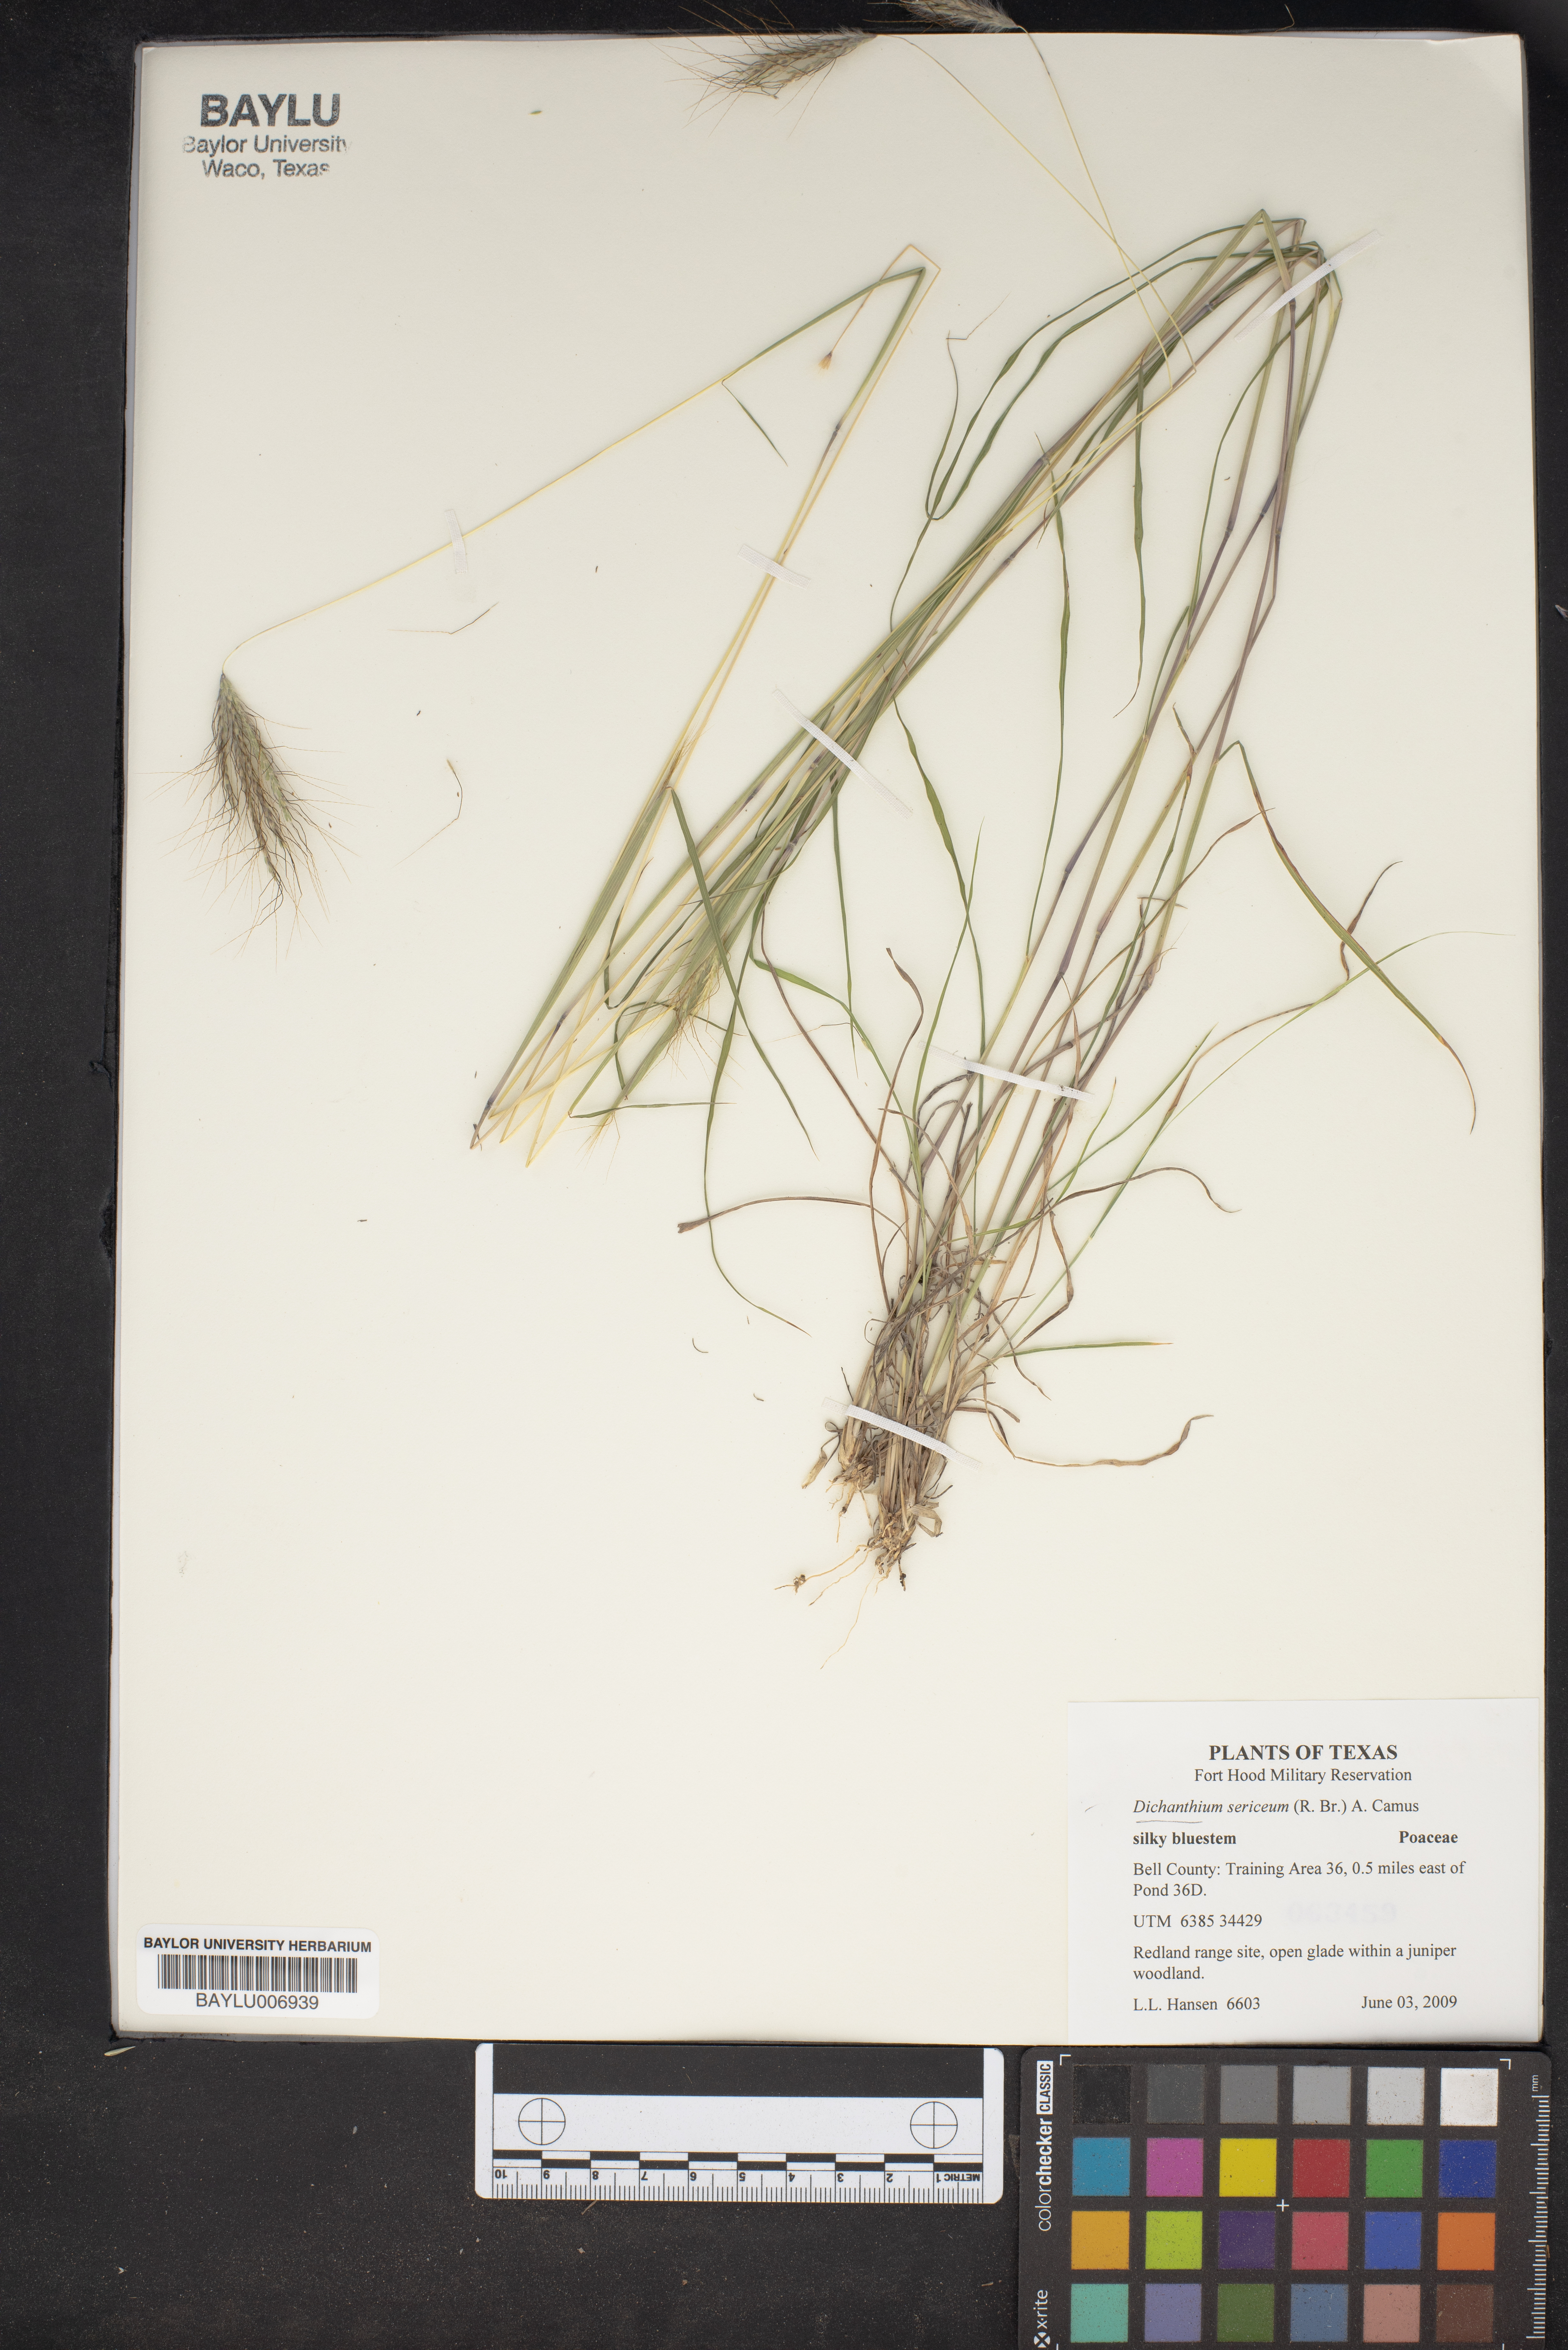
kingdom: Plantae
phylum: Tracheophyta
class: Liliopsida
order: Poales
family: Poaceae
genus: Dichanthium
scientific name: Dichanthium sericeum
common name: Silky bluestem
